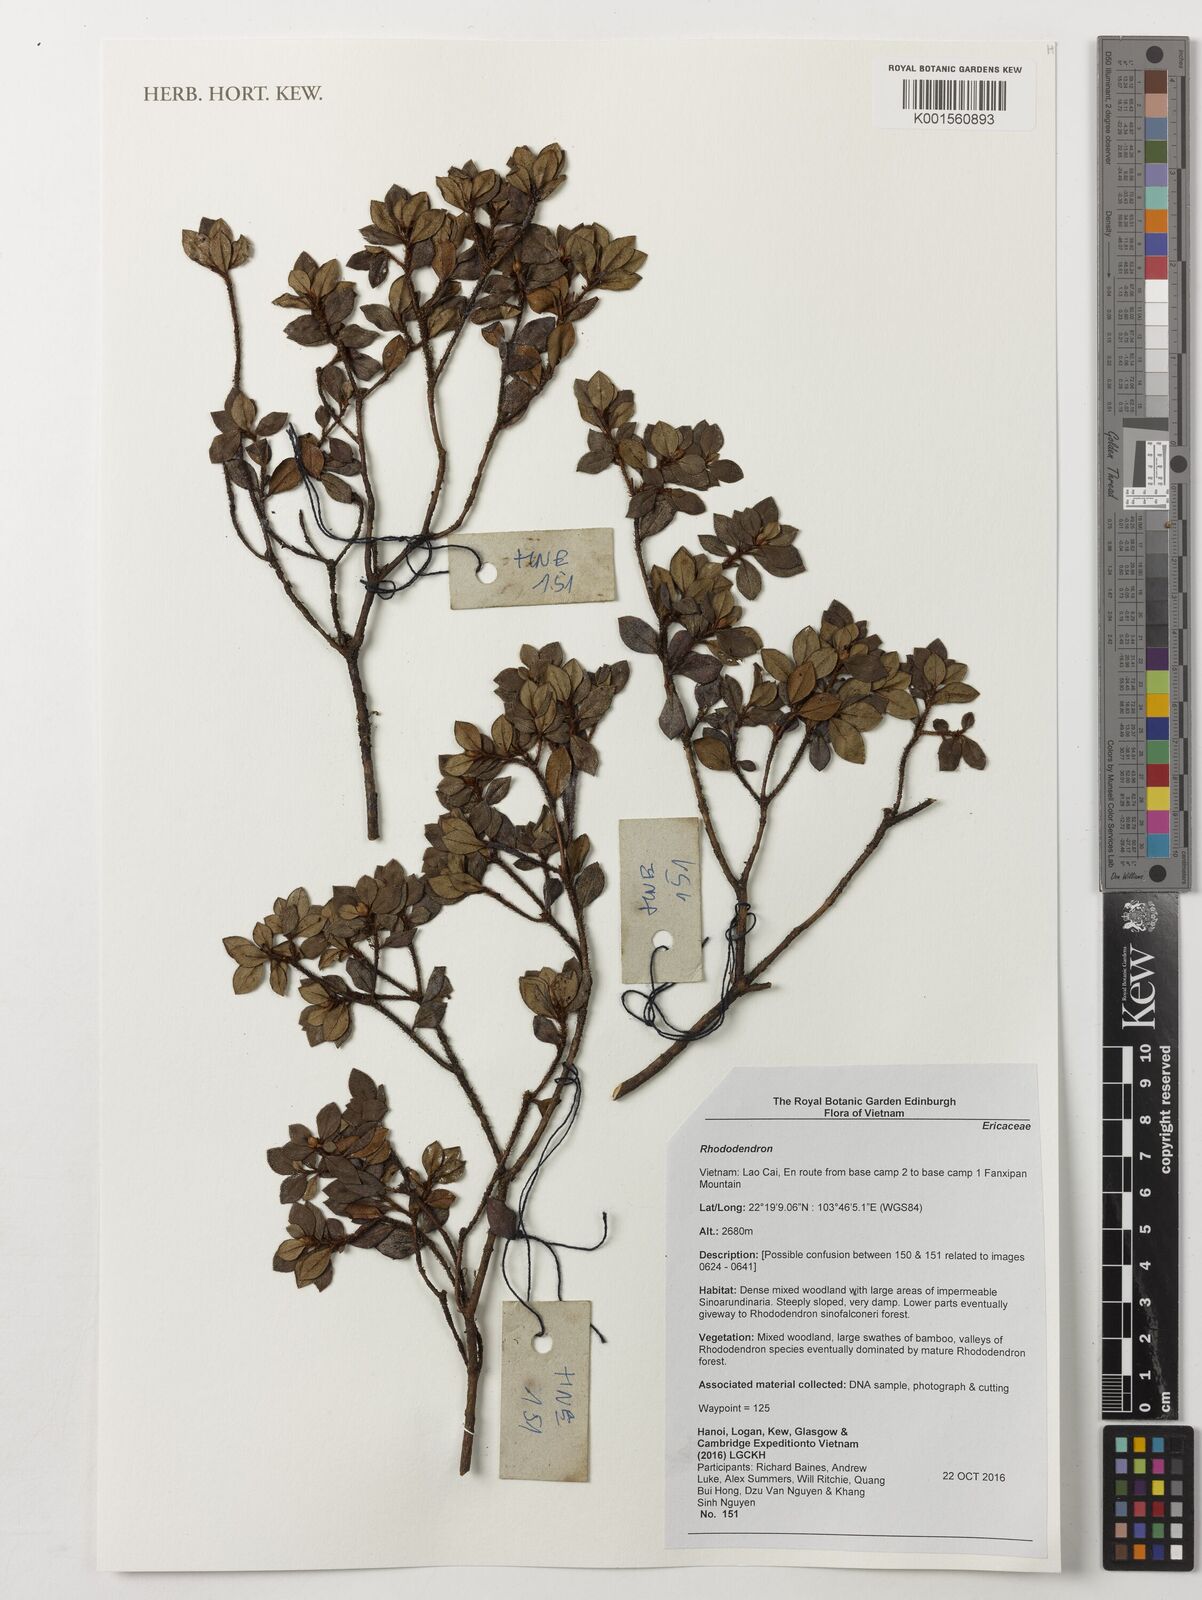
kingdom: Plantae
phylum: Tracheophyta
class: Magnoliopsida
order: Ericales
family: Ericaceae
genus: Rhododendron
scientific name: Rhododendron
